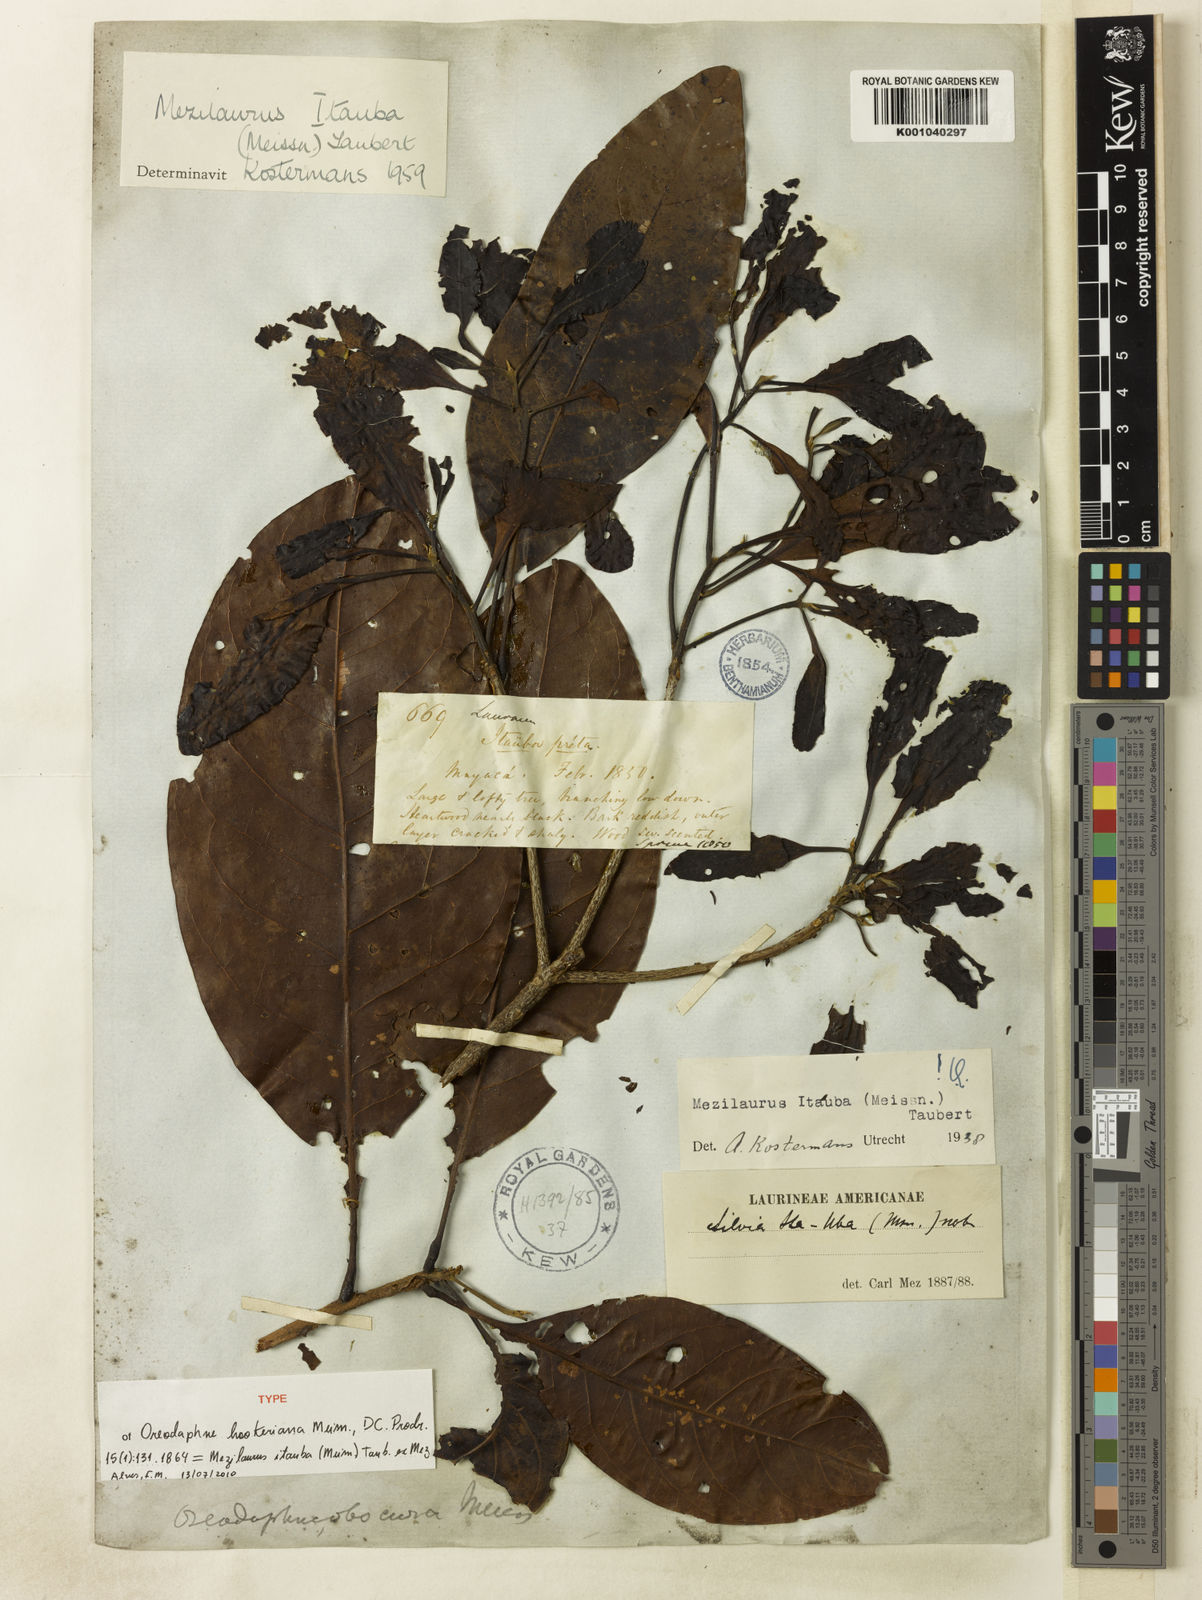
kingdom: Plantae
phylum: Tracheophyta
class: Magnoliopsida
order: Laurales
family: Lauraceae
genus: Mezilaurus
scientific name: Mezilaurus ita-uba
